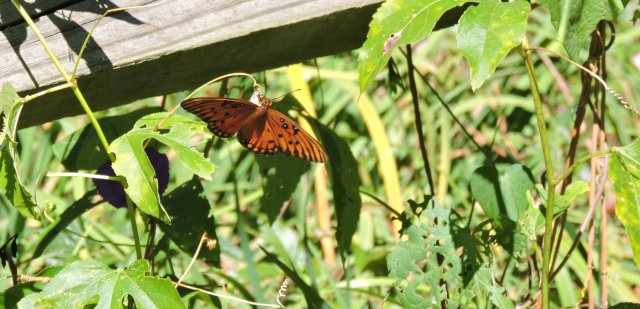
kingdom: Animalia
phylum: Arthropoda
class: Insecta
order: Lepidoptera
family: Nymphalidae
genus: Dione
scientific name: Dione vanillae
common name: Gulf Fritillary
